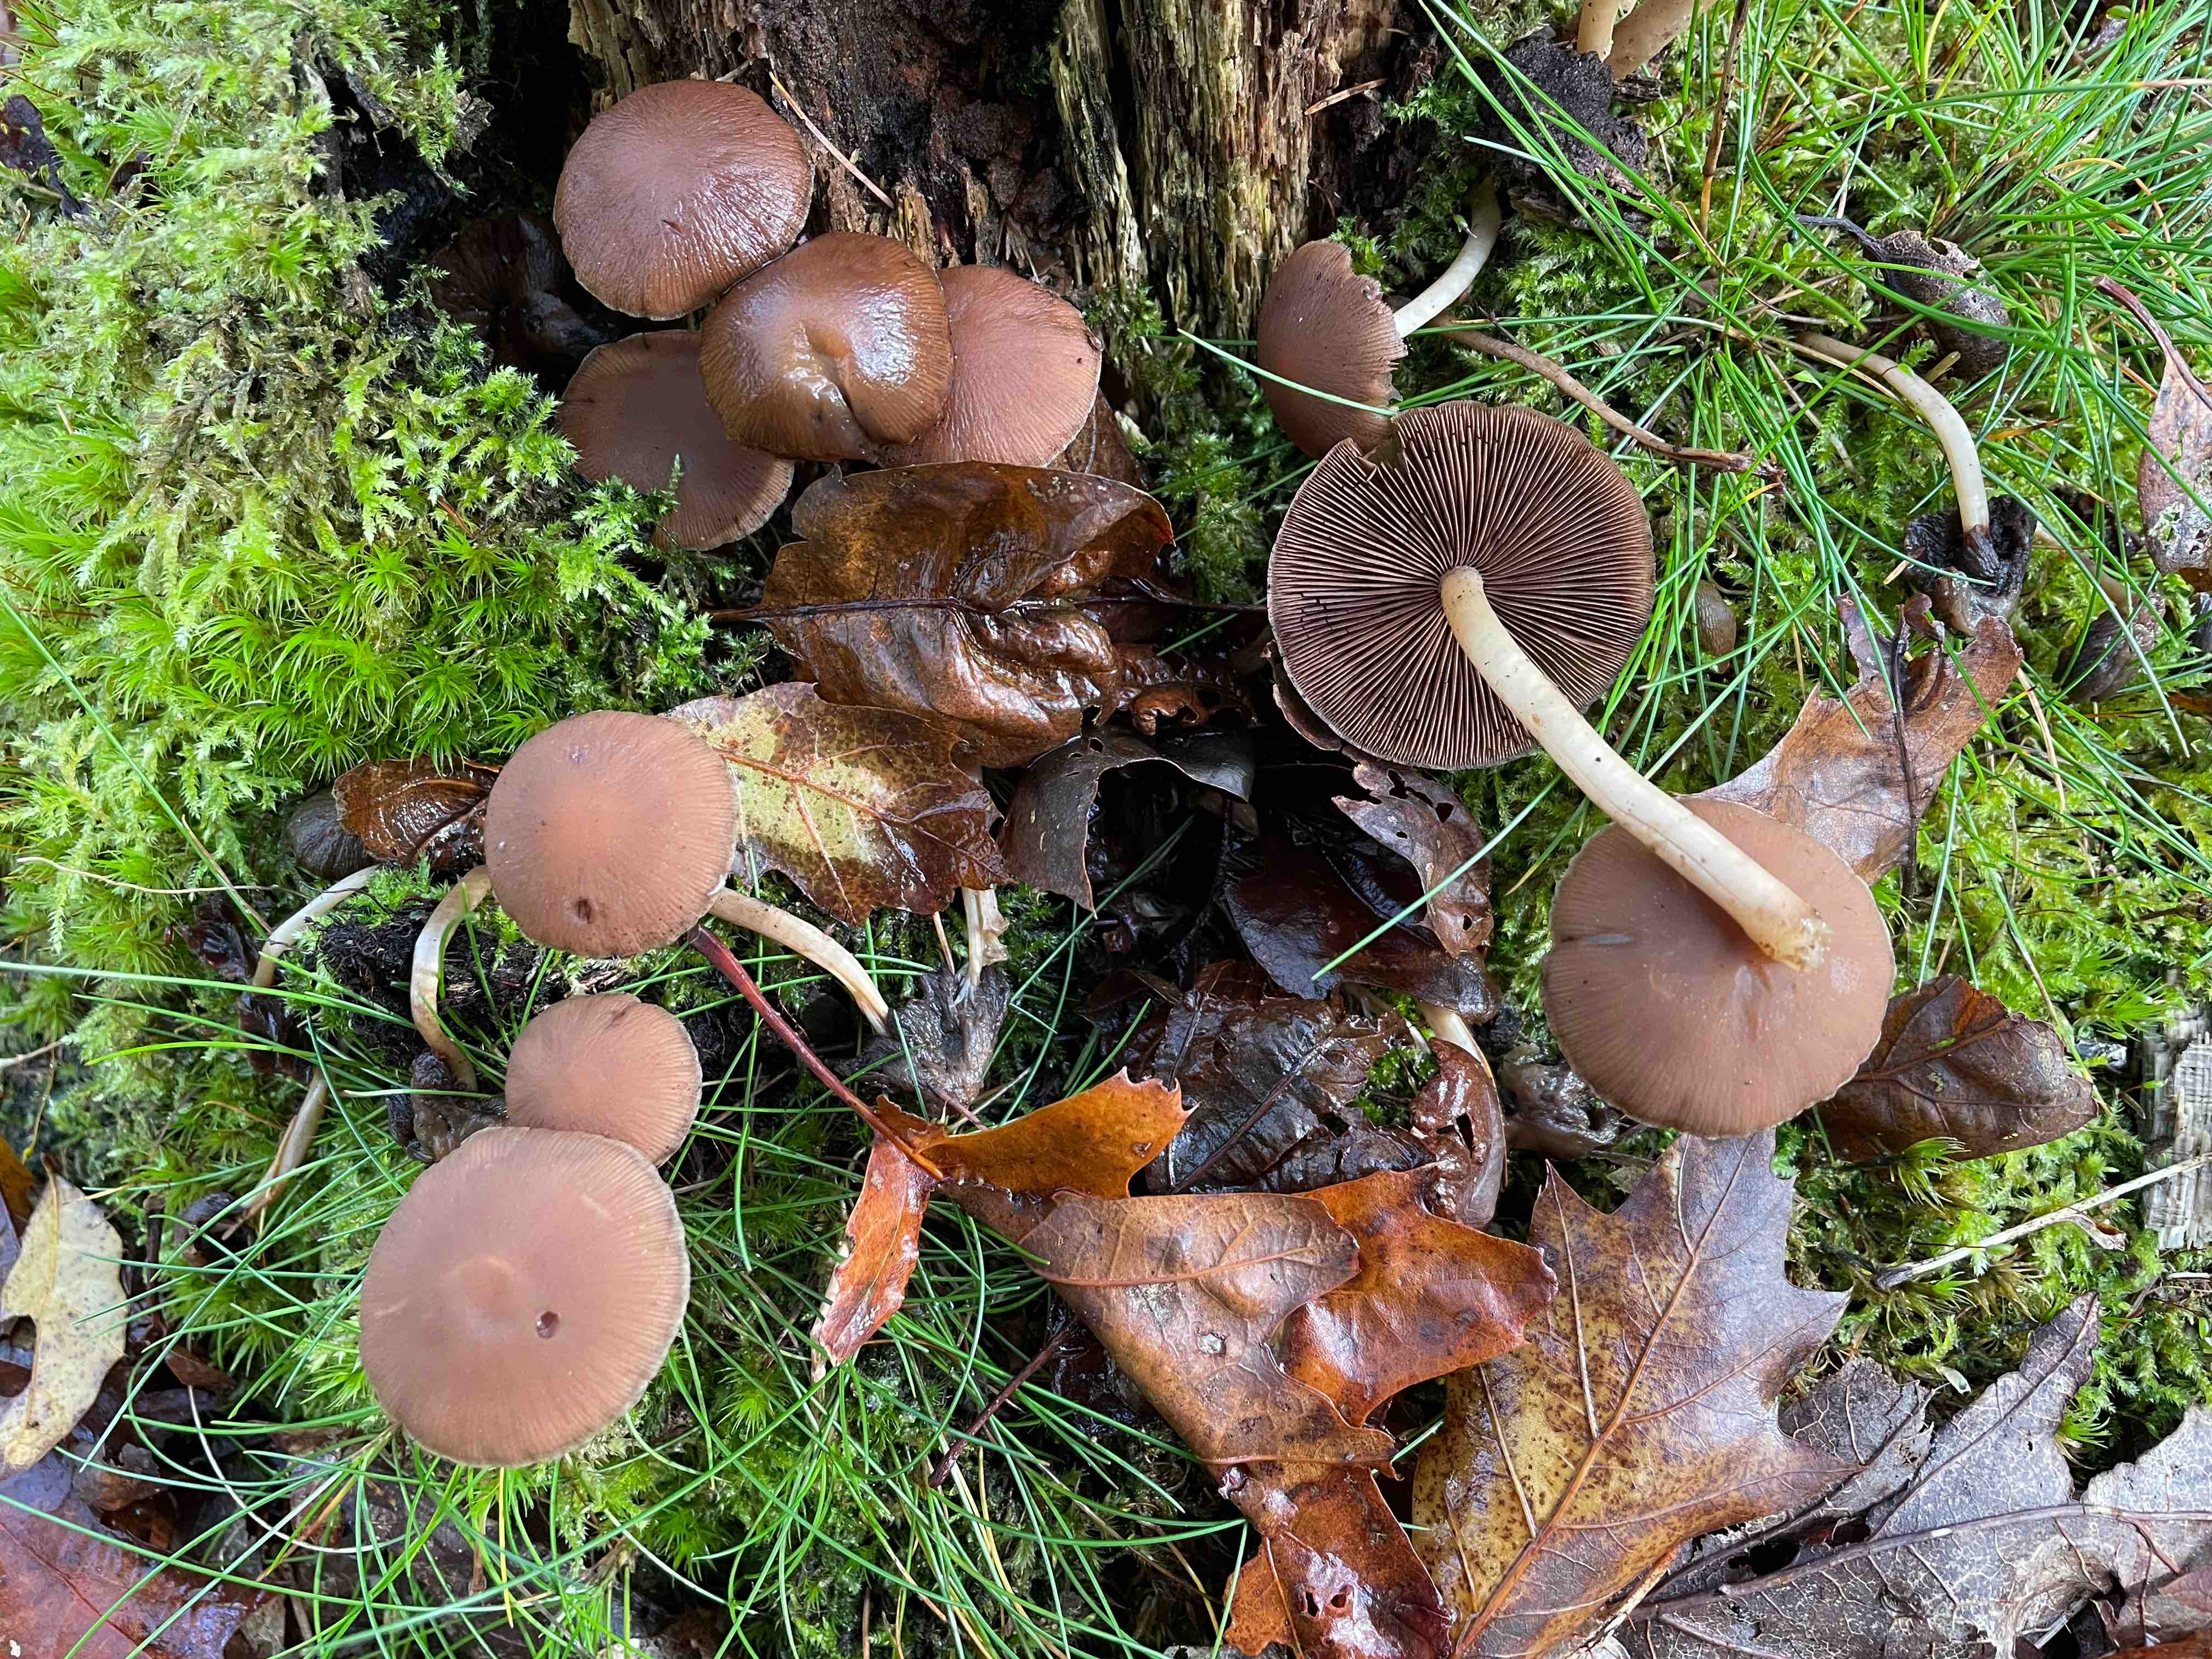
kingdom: Fungi
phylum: Basidiomycota
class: Agaricomycetes
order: Agaricales
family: Psathyrellaceae
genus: Psathyrella
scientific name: Psathyrella piluliformis
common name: lysstokket mørkhat
